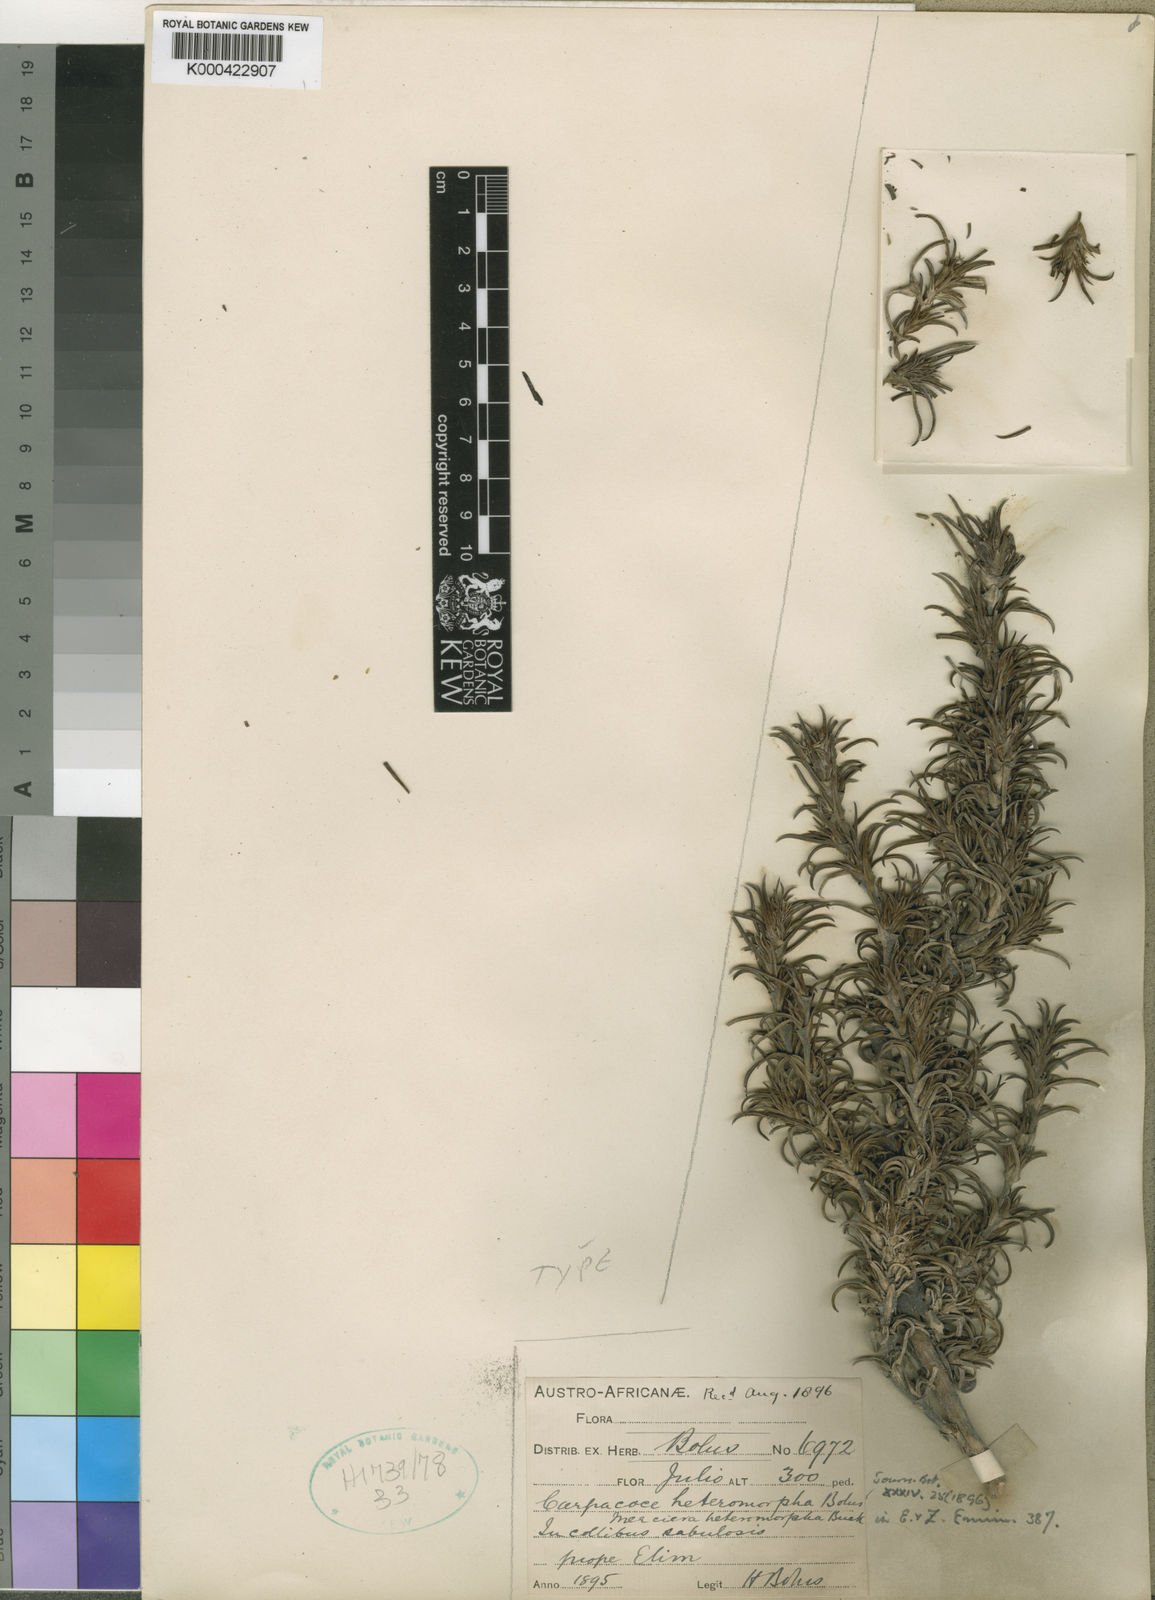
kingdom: Plantae
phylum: Tracheophyta
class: Magnoliopsida
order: Gentianales
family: Rubiaceae
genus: Carpacoce
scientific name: Carpacoce heteromorpha
